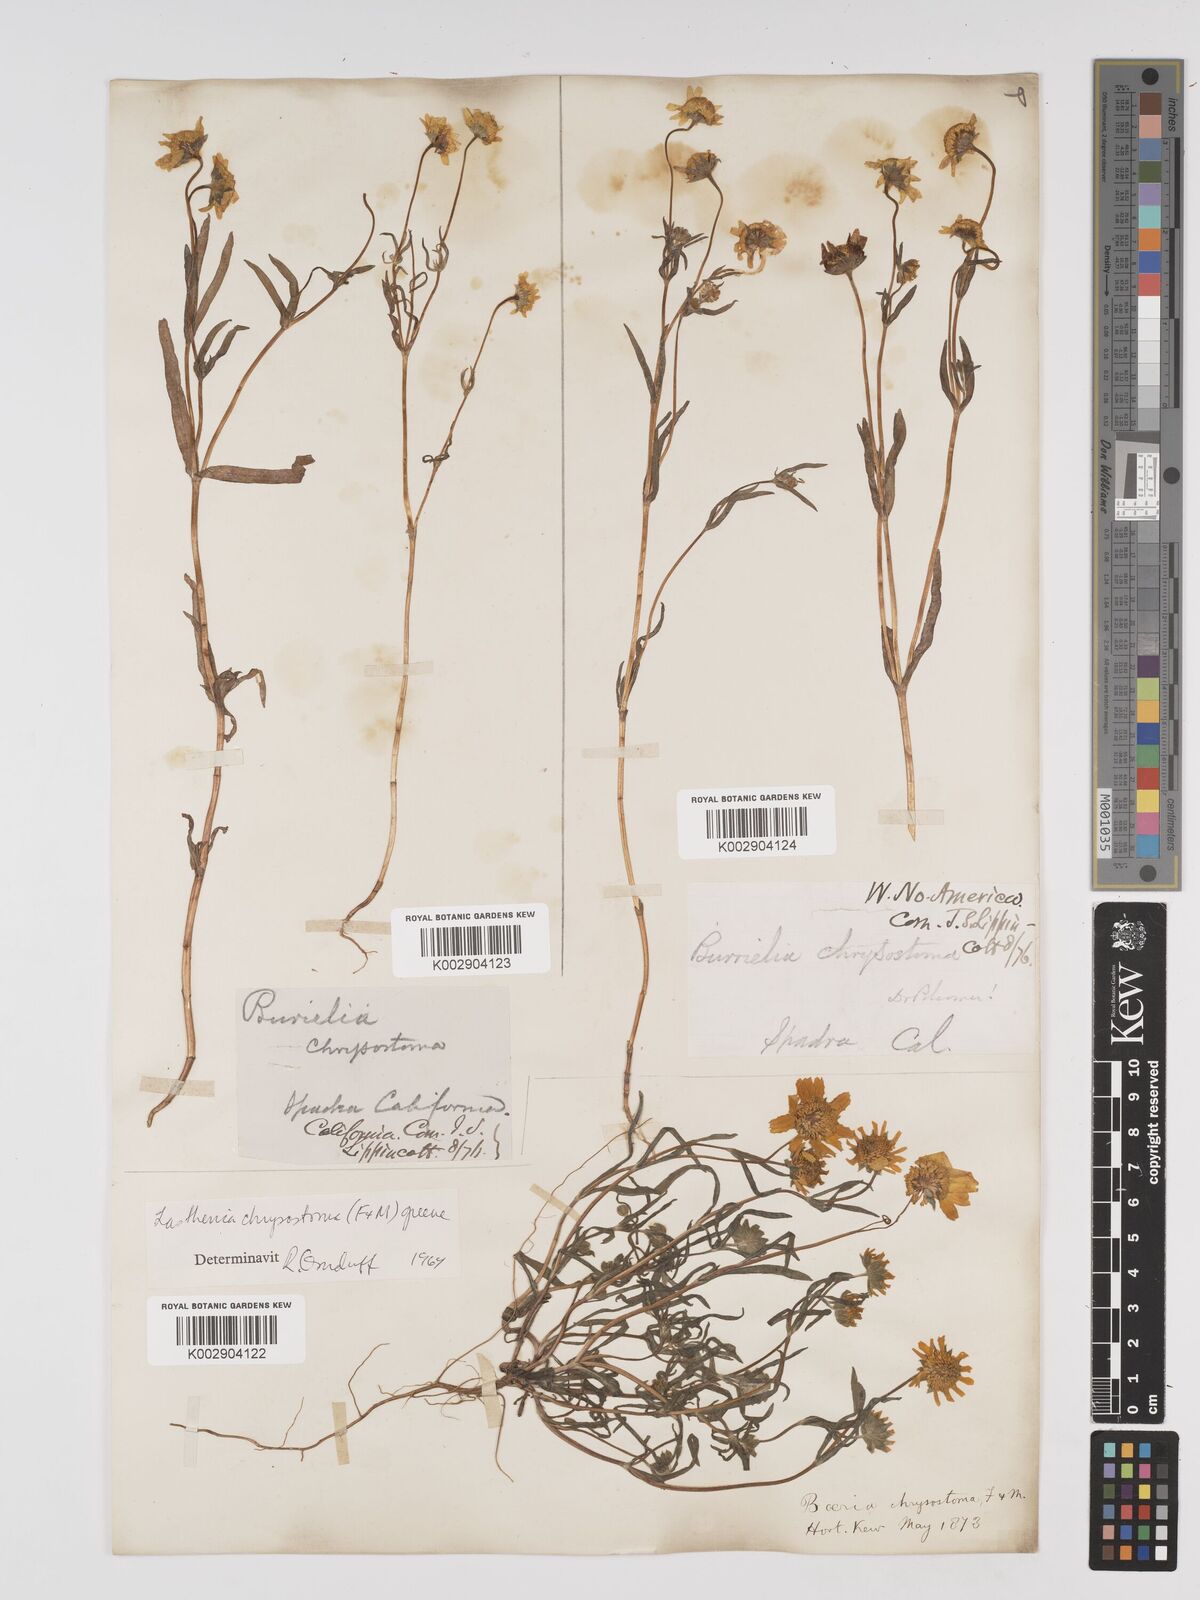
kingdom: Plantae
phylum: Tracheophyta
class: Magnoliopsida
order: Asterales
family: Asteraceae
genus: Lasthenia
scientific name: Lasthenia californica
